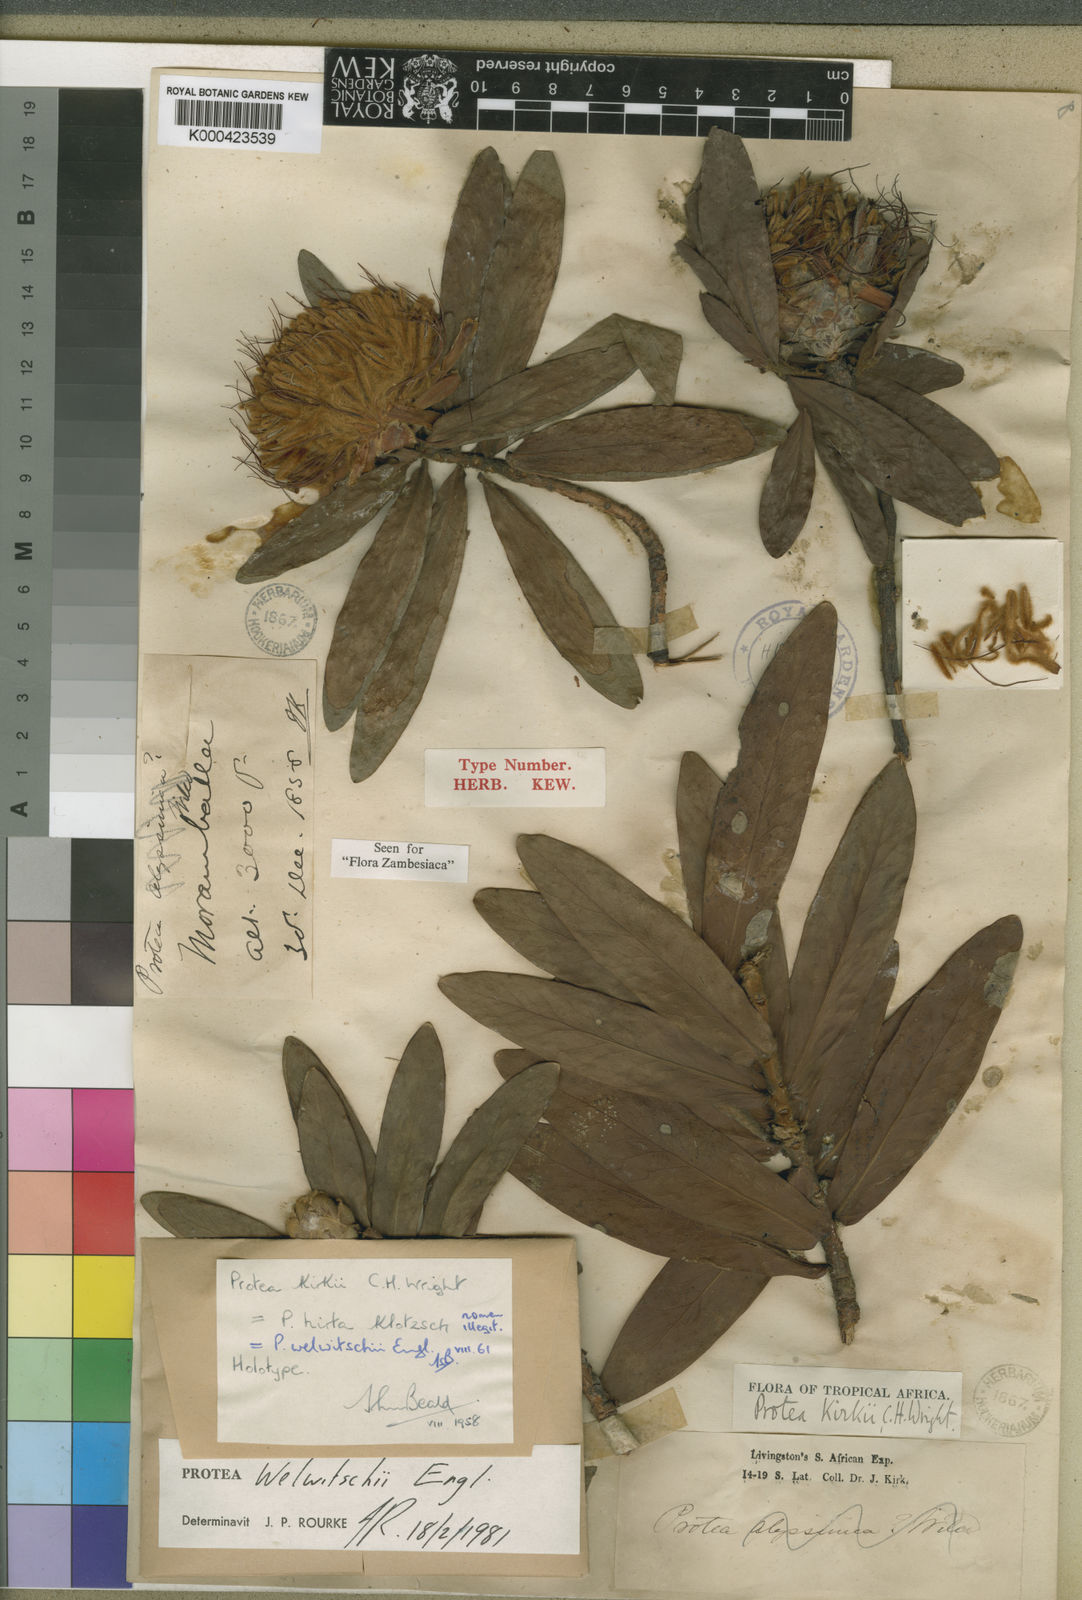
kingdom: Plantae
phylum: Tracheophyta
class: Magnoliopsida
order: Proteales
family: Proteaceae
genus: Protea
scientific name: Protea welwitschii
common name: Cluster-head protea
